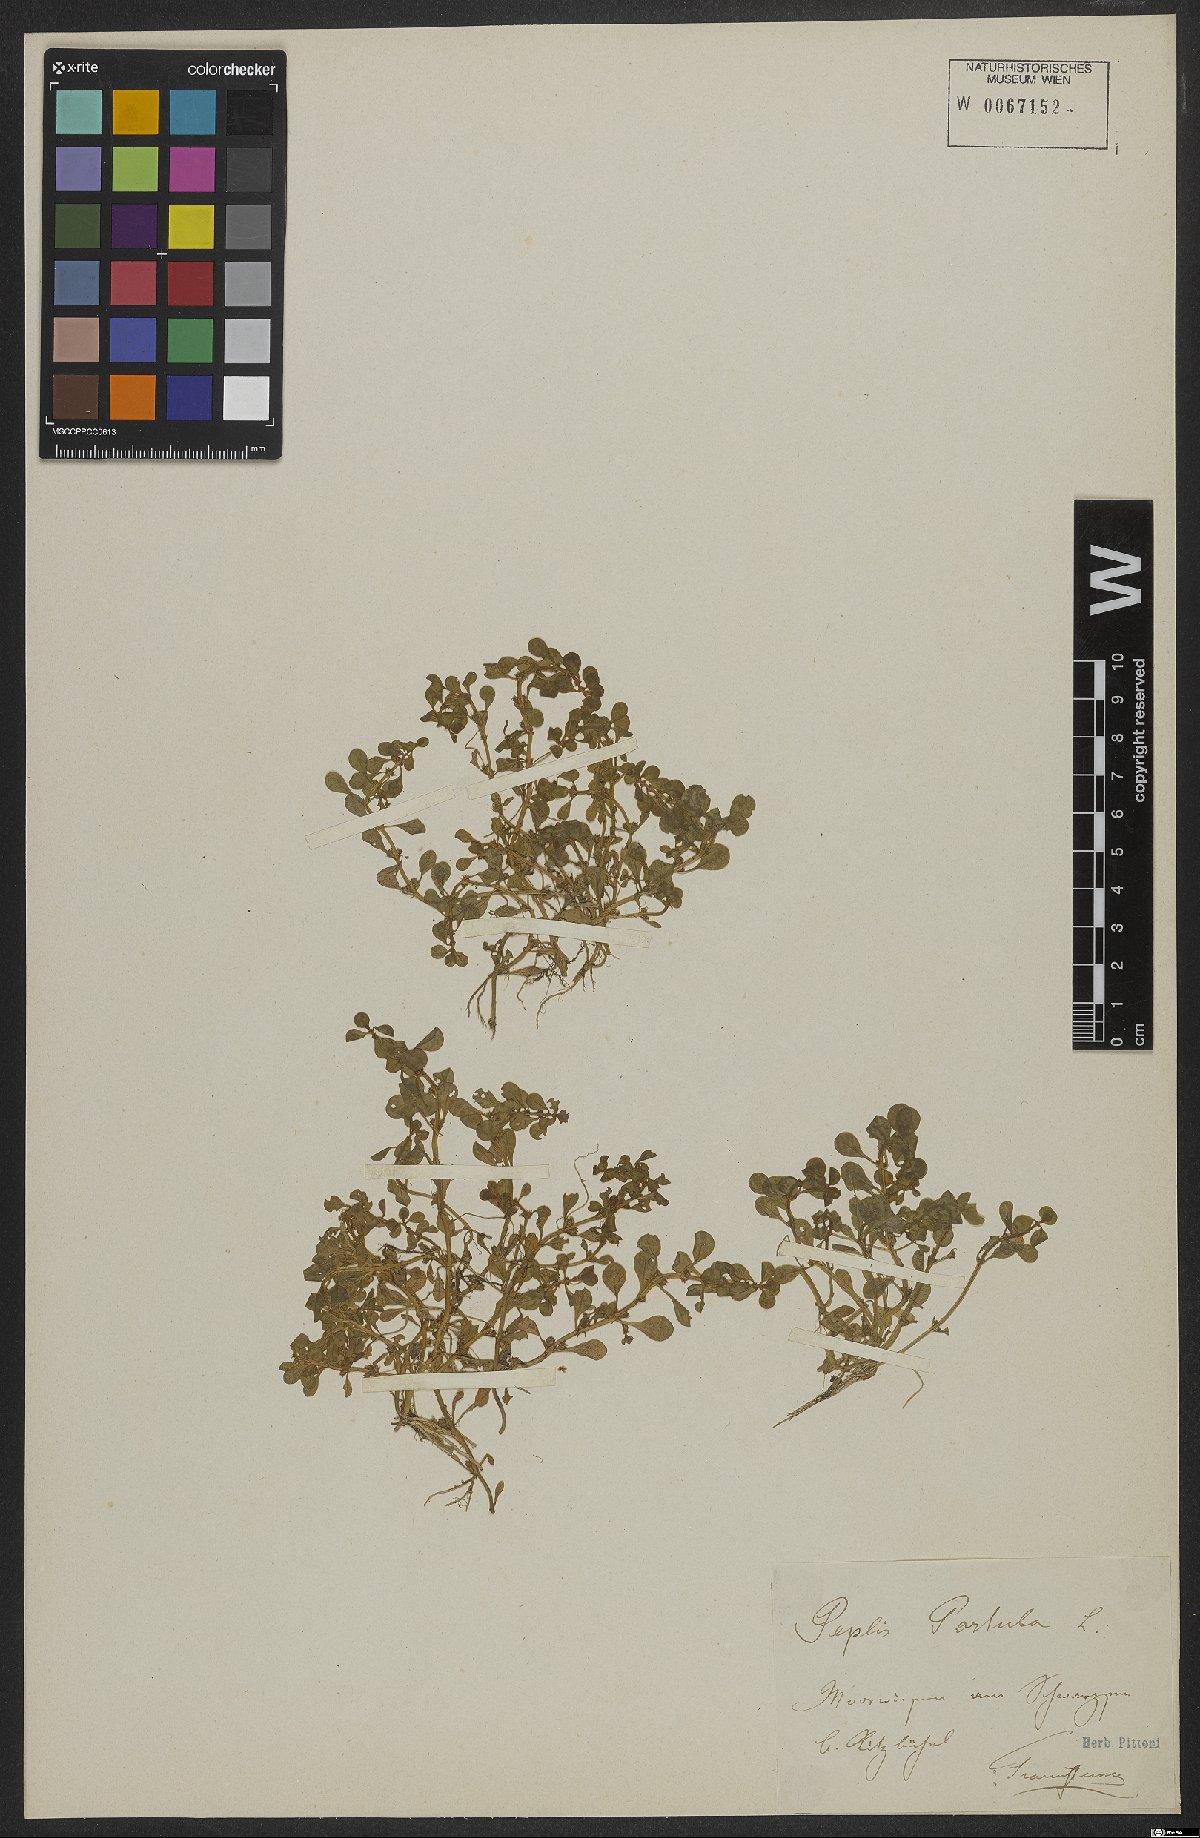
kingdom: Plantae
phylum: Tracheophyta
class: Magnoliopsida
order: Myrtales
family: Lythraceae
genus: Lythrum
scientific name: Lythrum portula
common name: Water purslane
